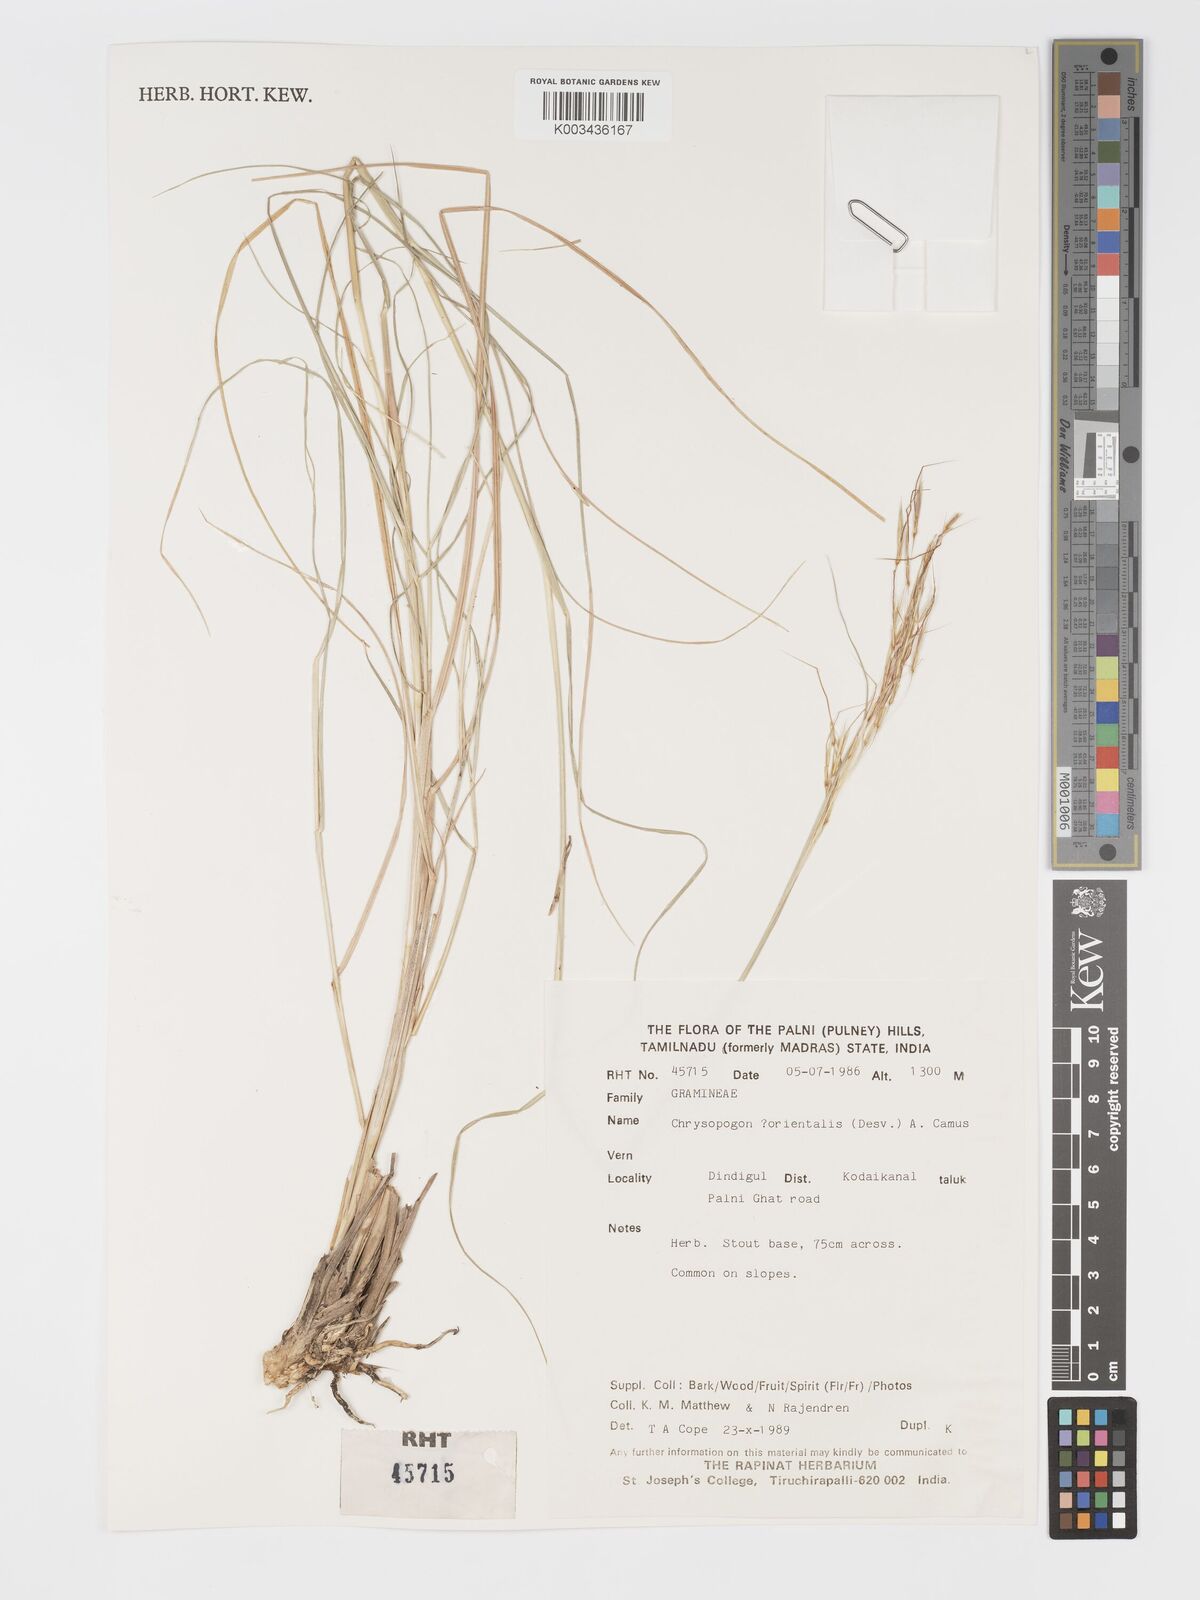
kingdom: Plantae
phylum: Tracheophyta
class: Liliopsida
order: Poales
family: Poaceae
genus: Chrysopogon
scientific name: Chrysopogon orientalis
